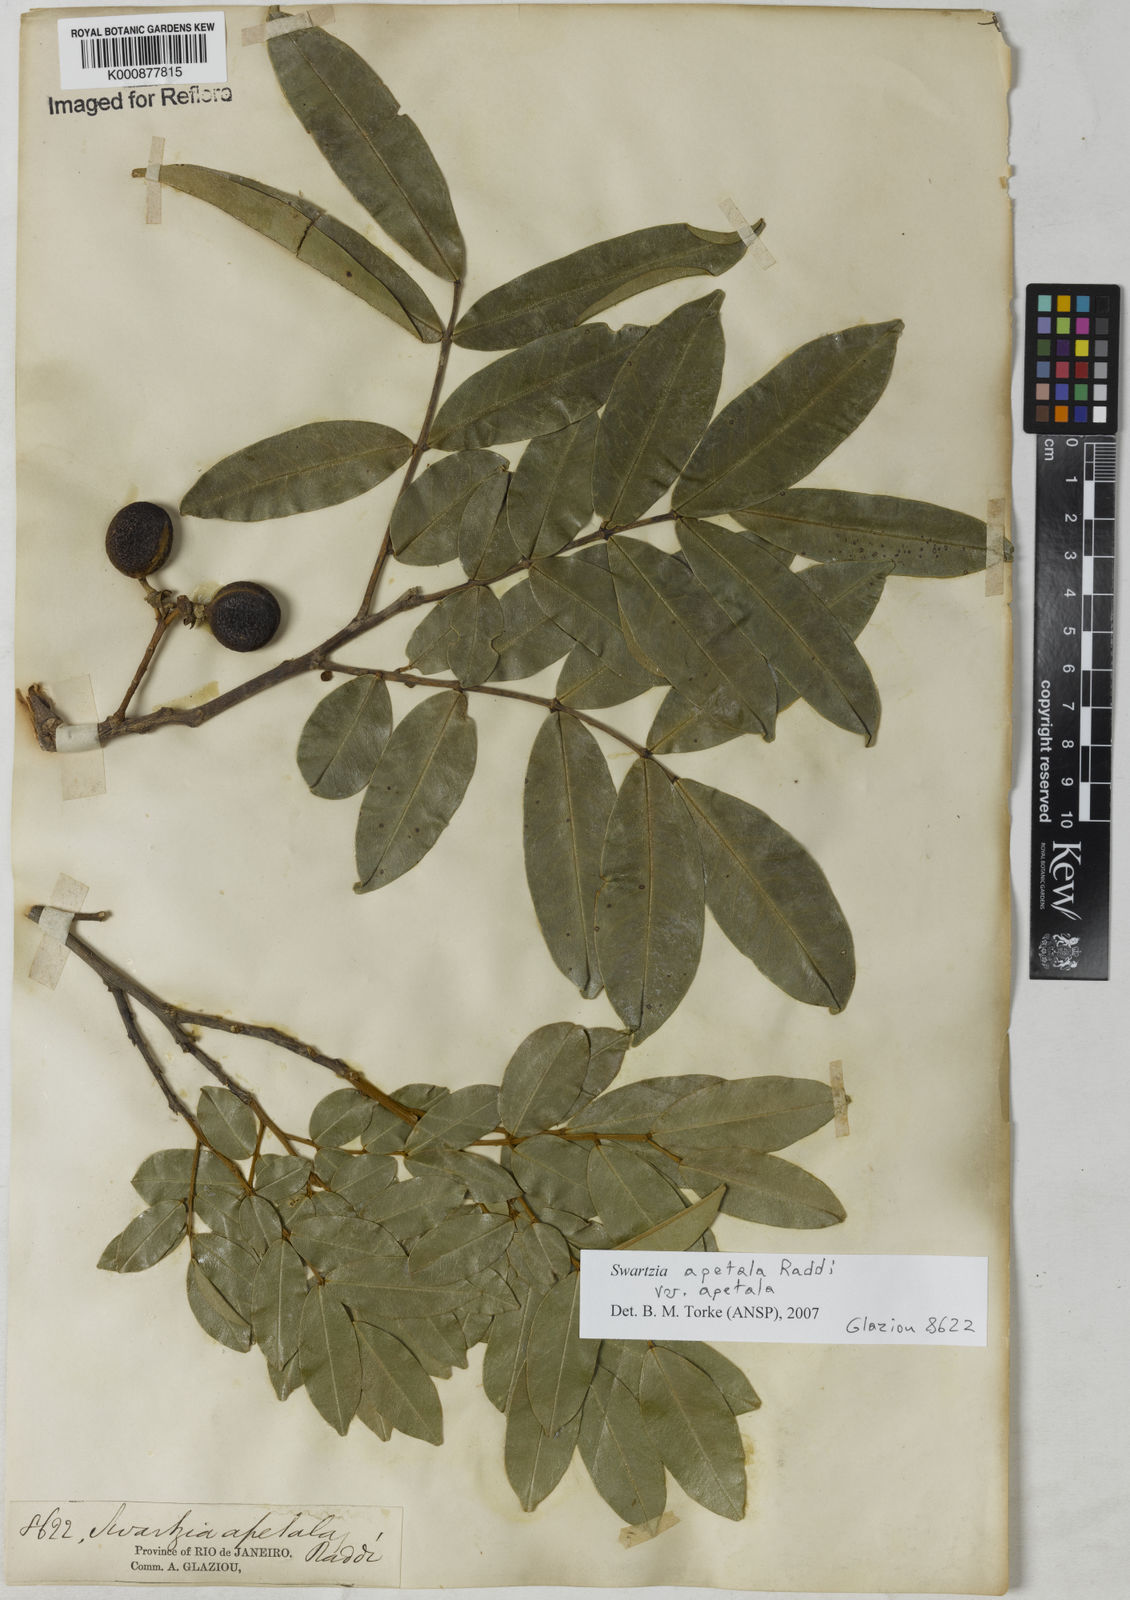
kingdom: Plantae
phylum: Tracheophyta
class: Magnoliopsida
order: Fabales
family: Fabaceae
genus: Swartzia
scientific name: Swartzia apetala
